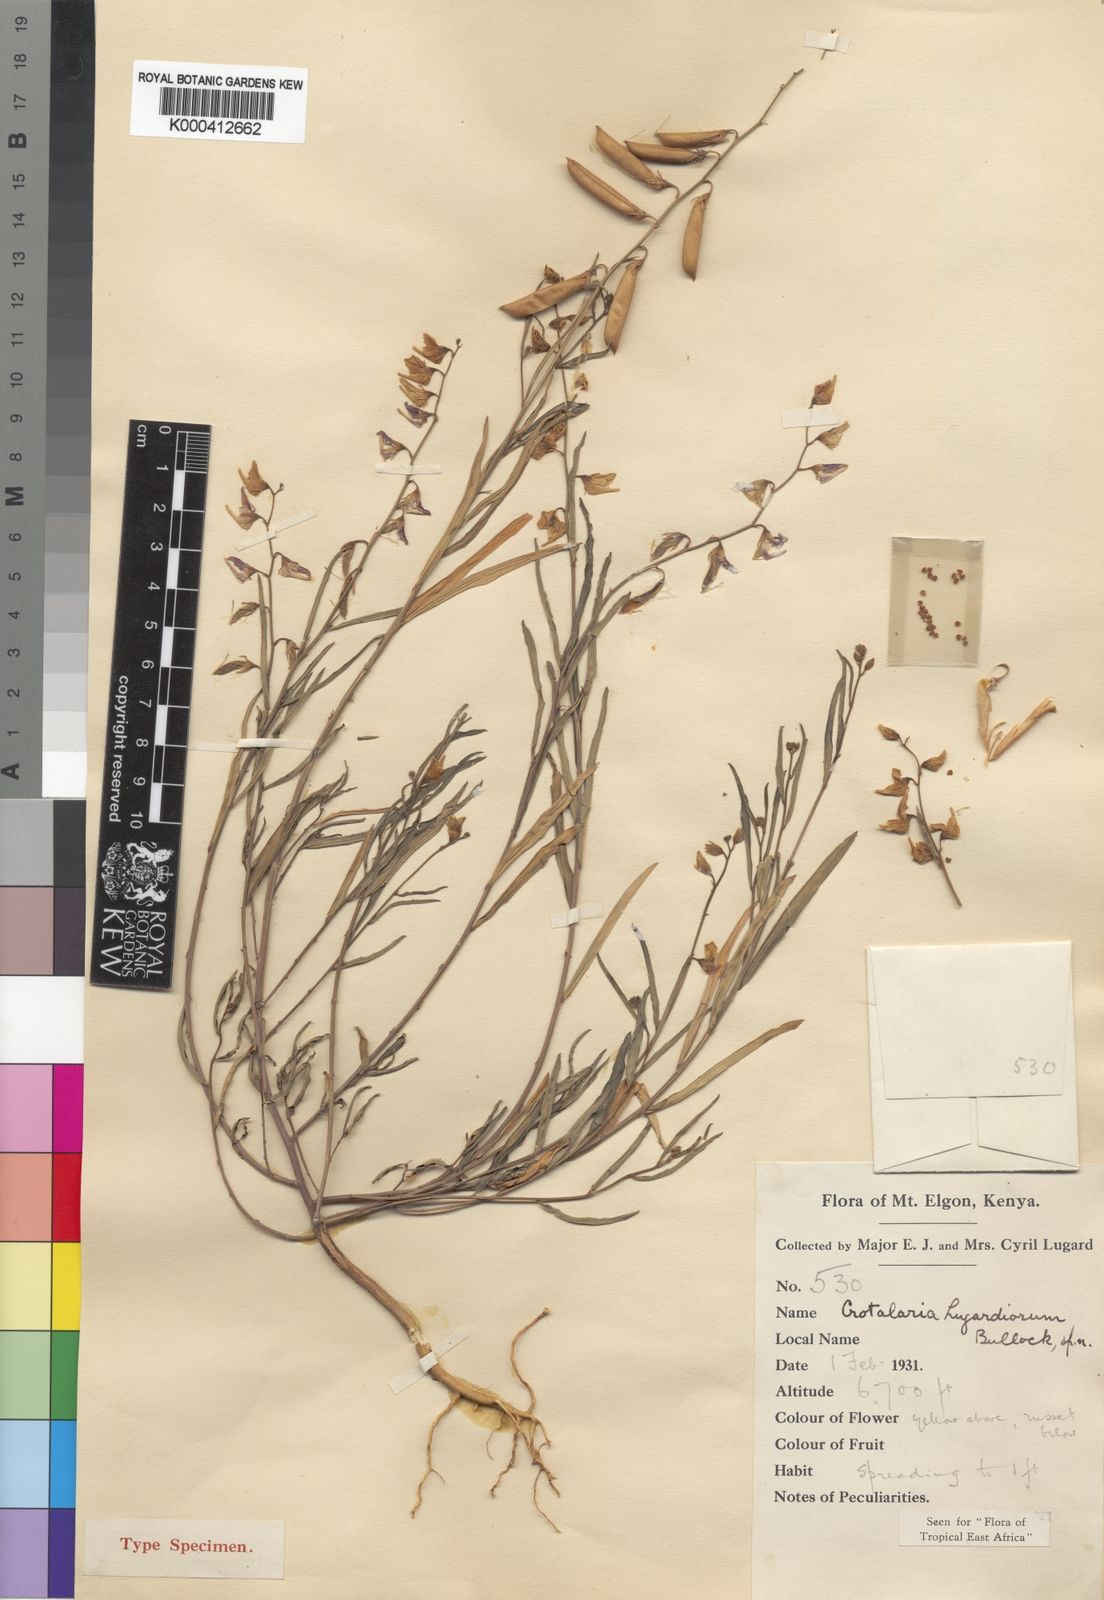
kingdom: Plantae
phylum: Tracheophyta
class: Magnoliopsida
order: Fabales
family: Fabaceae
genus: Crotalaria
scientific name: Crotalaria karagwensis
